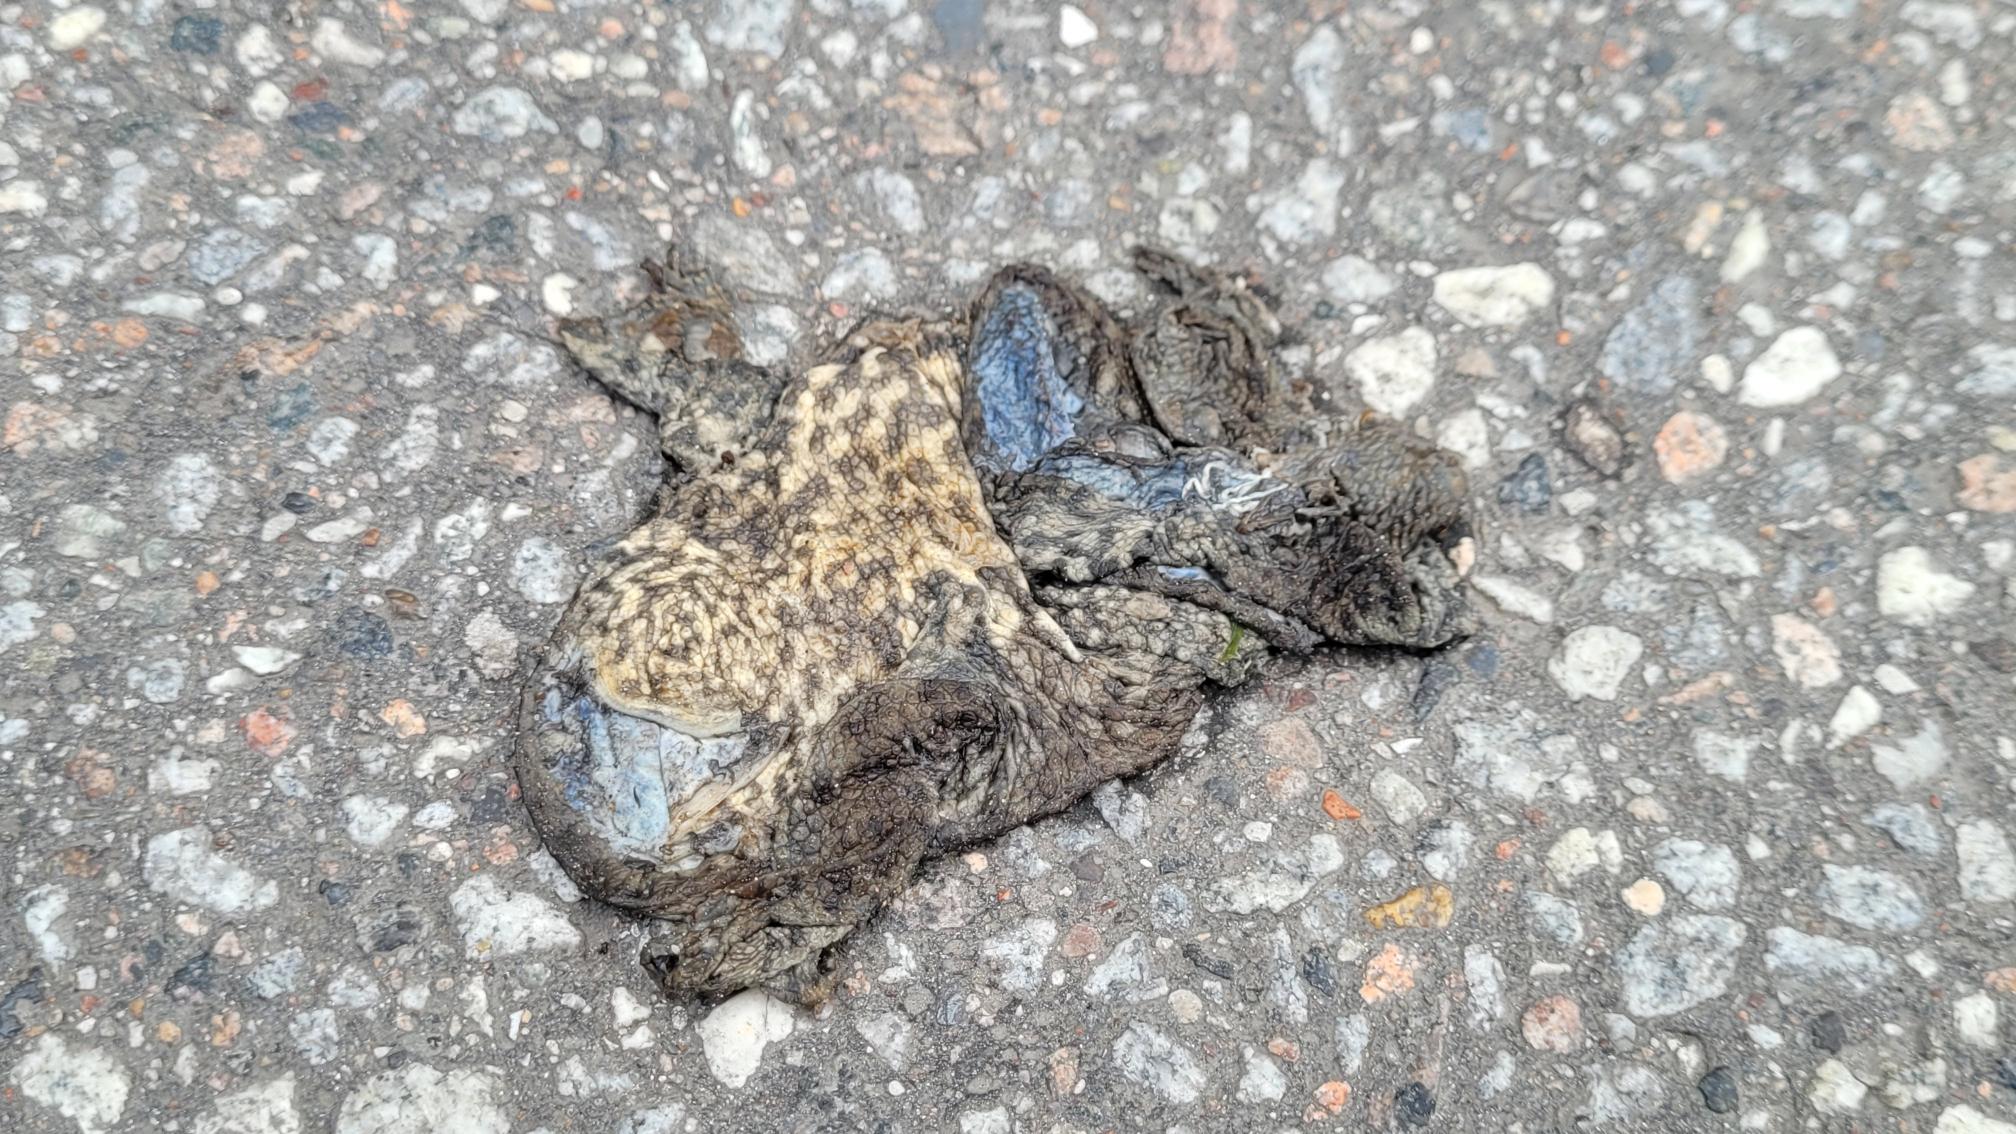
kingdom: Animalia
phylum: Chordata
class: Amphibia
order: Anura
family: Bufonidae
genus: Bufo
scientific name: Bufo bufo
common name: Skrubtudse
